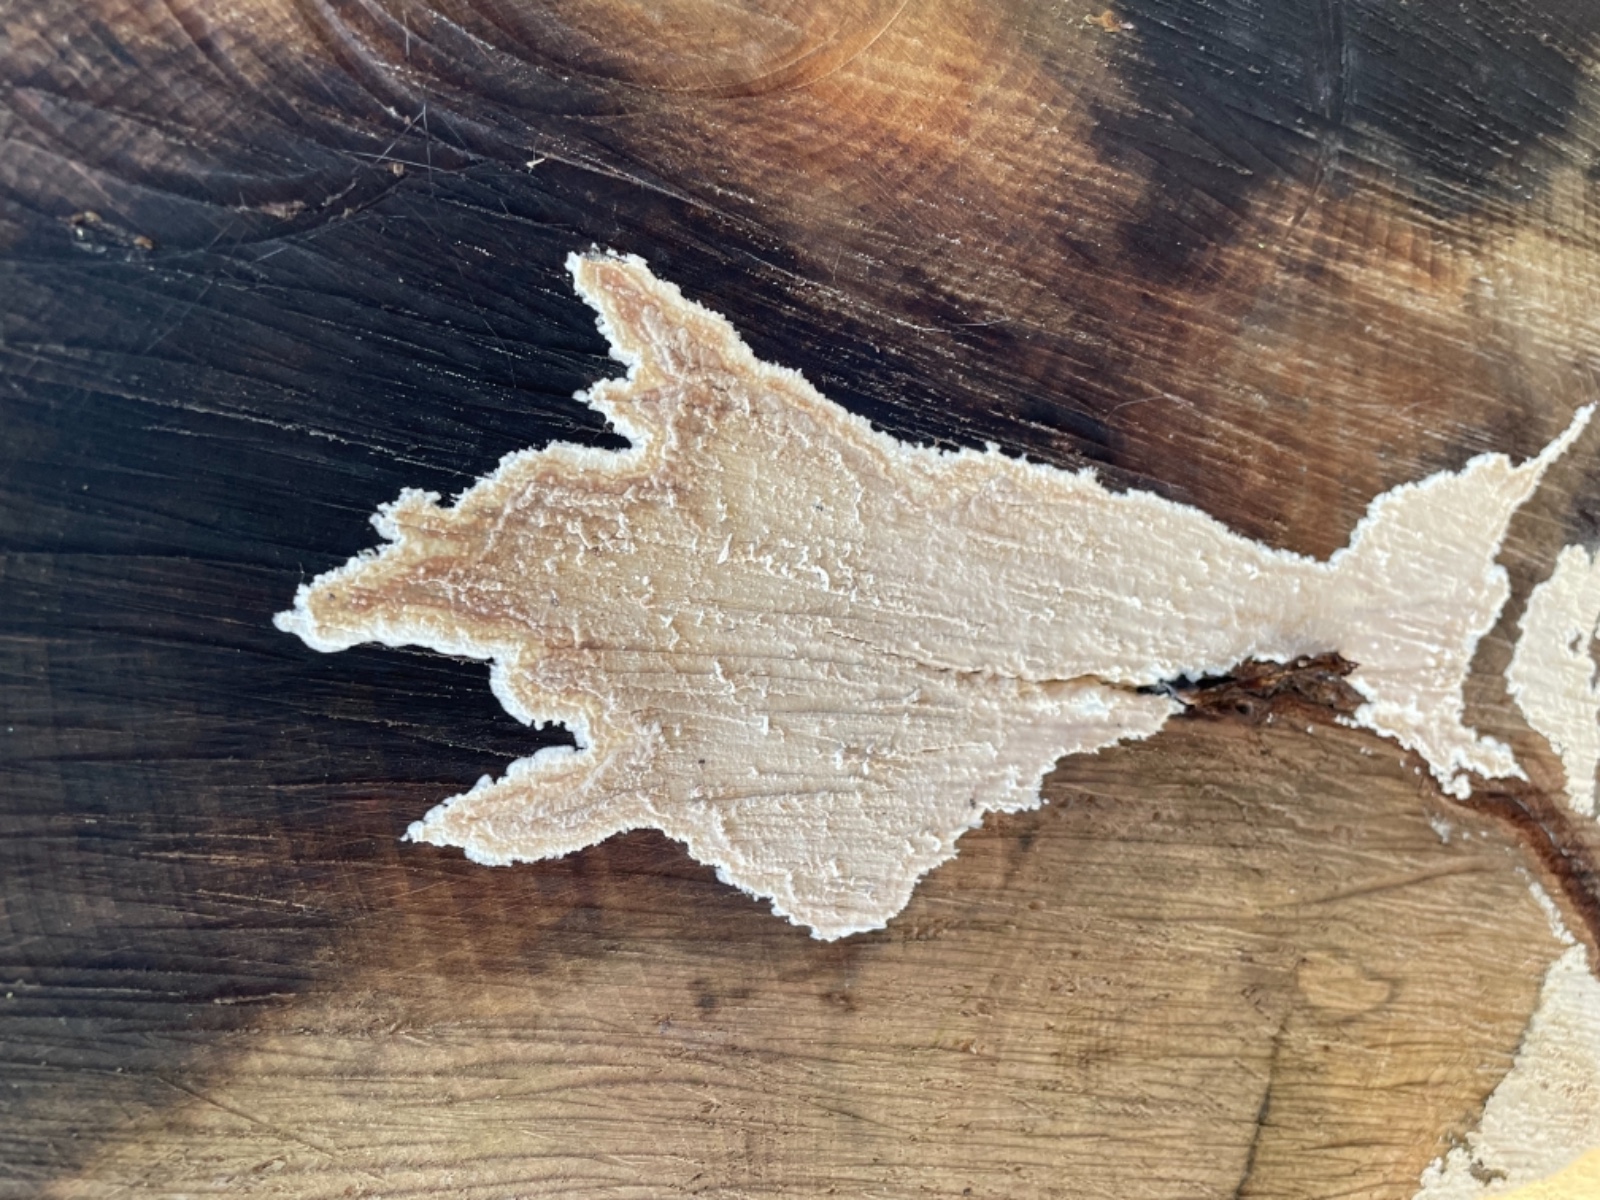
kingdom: Fungi
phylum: Basidiomycota
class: Agaricomycetes
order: Agaricales
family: Physalacriaceae
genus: Cylindrobasidium
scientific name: Cylindrobasidium evolvens
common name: sprækkehinde
